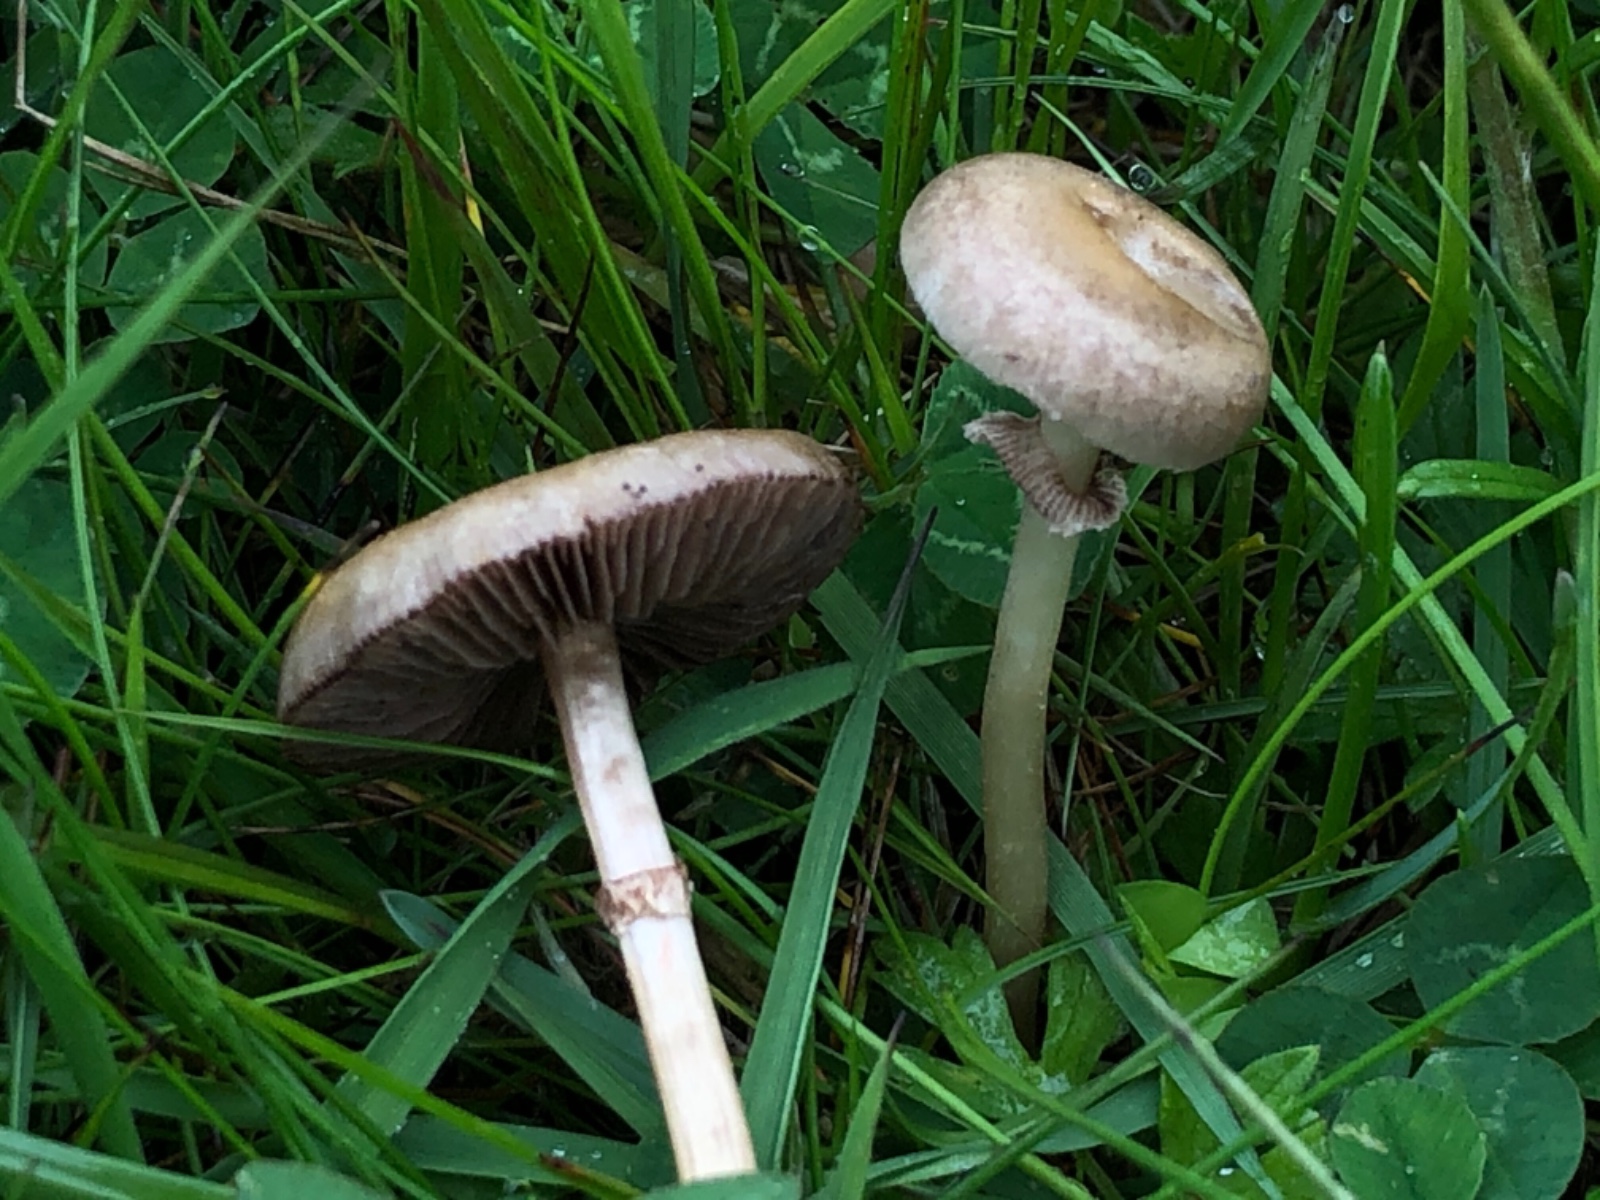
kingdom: Fungi
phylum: Basidiomycota
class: Agaricomycetes
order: Agaricales
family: Strophariaceae
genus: Agrocybe
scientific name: Agrocybe praecox
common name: tidlig agerhat
